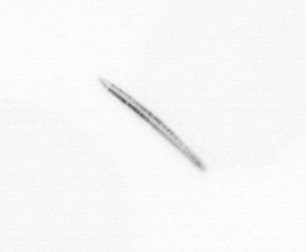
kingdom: Chromista
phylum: Ochrophyta
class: Bacillariophyceae
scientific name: Bacillariophyceae
